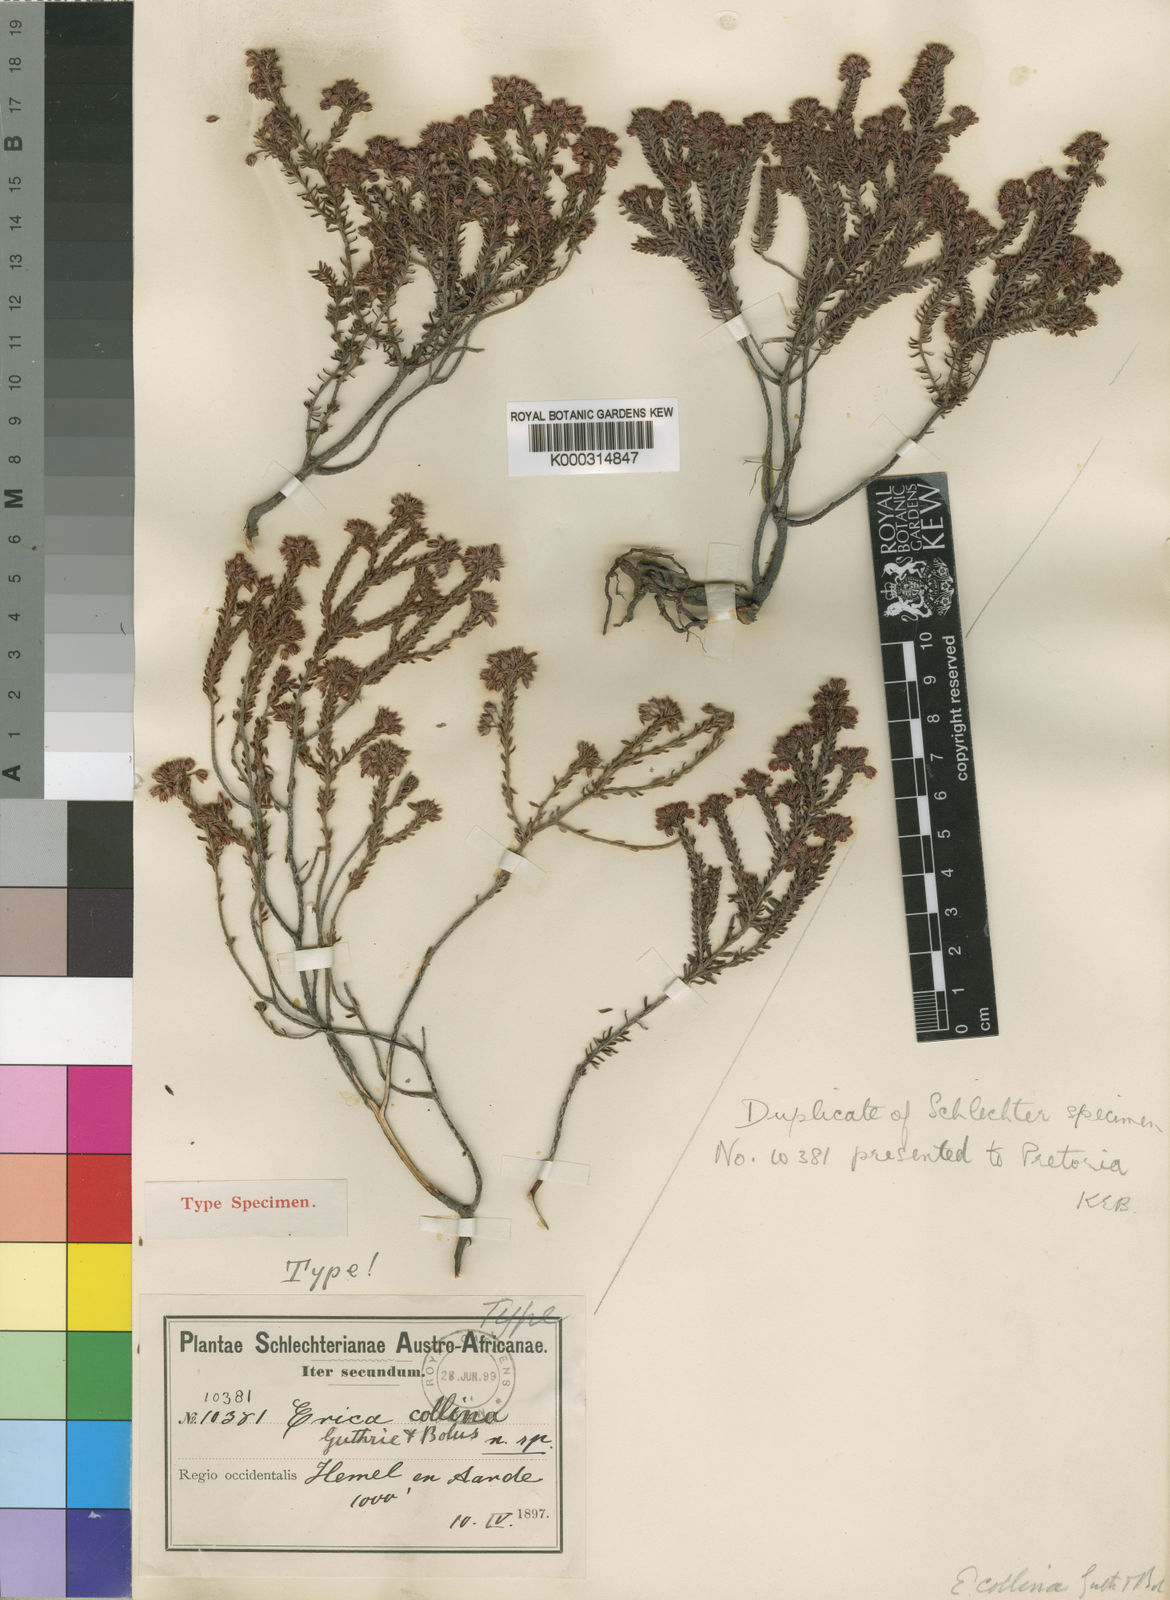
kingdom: Plantae
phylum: Tracheophyta
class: Magnoliopsida
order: Ericales
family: Ericaceae
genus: Erica
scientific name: Erica collina
